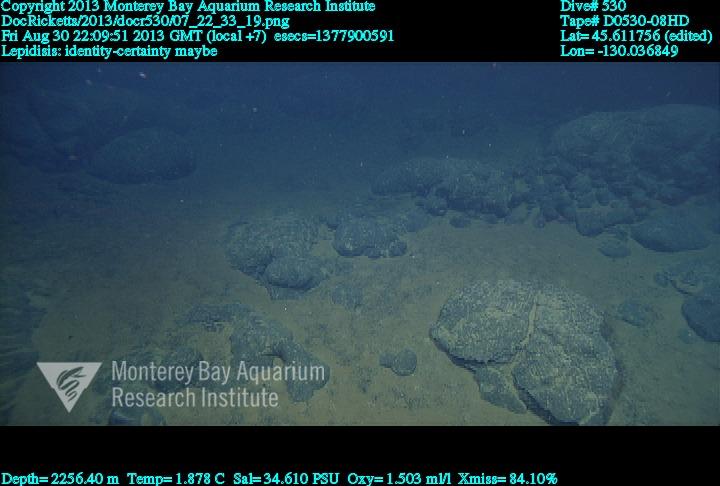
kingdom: Animalia
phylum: Cnidaria
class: Anthozoa
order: Scleralcyonacea
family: Keratoisididae
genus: Lepidisis
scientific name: Lepidisis
